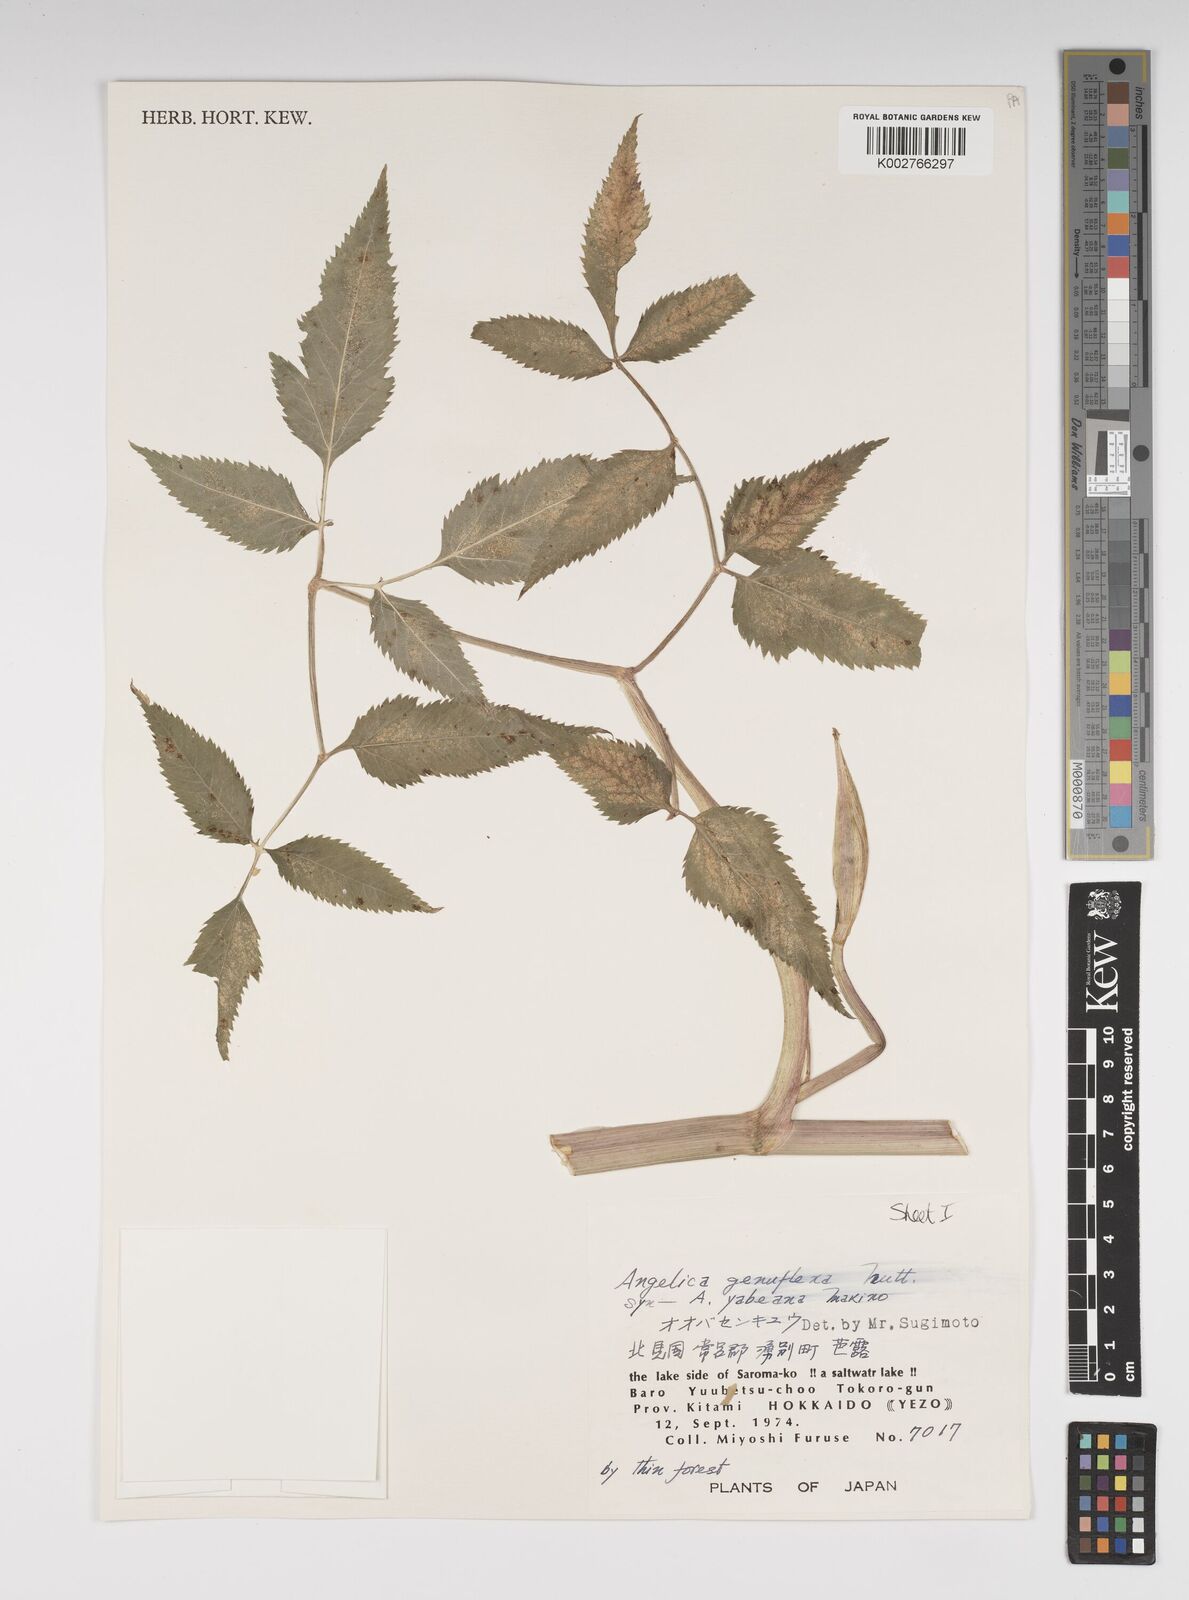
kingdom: Plantae
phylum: Tracheophyta
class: Magnoliopsida
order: Apiales
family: Apiaceae
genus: Angelica
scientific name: Angelica genuflexa
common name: Kneeling angelica
